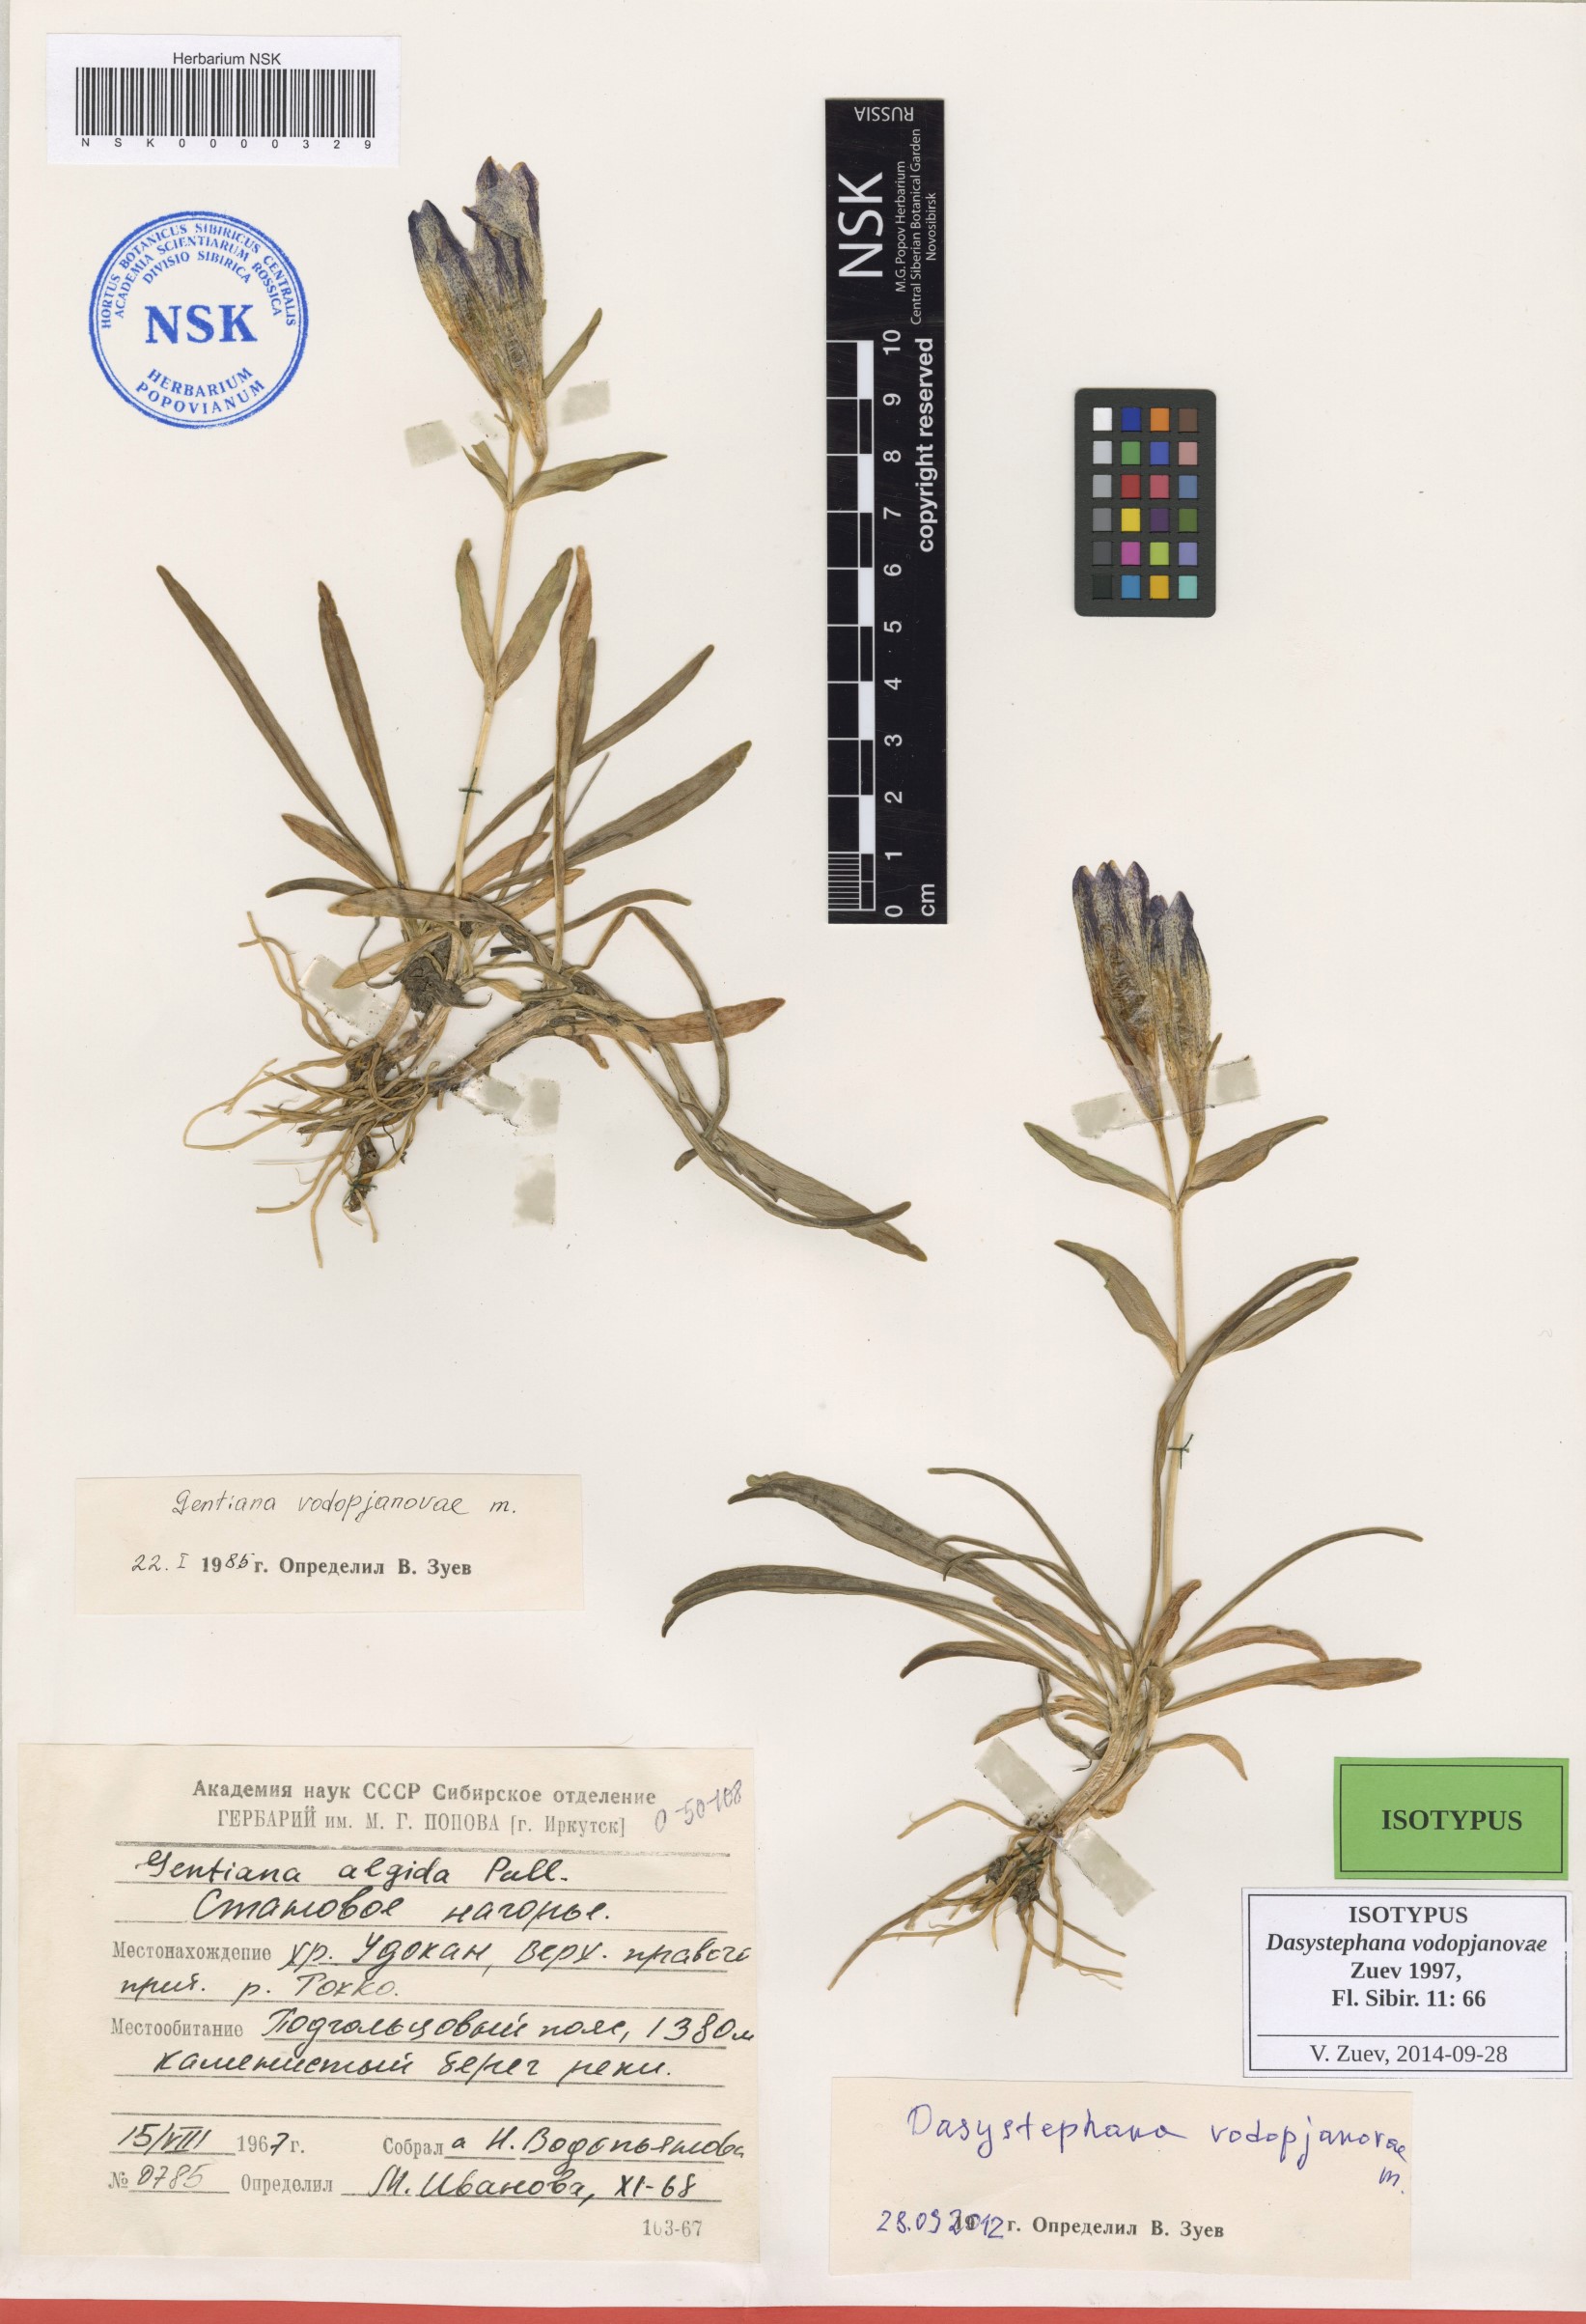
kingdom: Plantae
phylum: Tracheophyta
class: Magnoliopsida
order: Gentianales
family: Gentianaceae
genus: Gentiana
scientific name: Gentiana Dasystephana vodopjanovae
